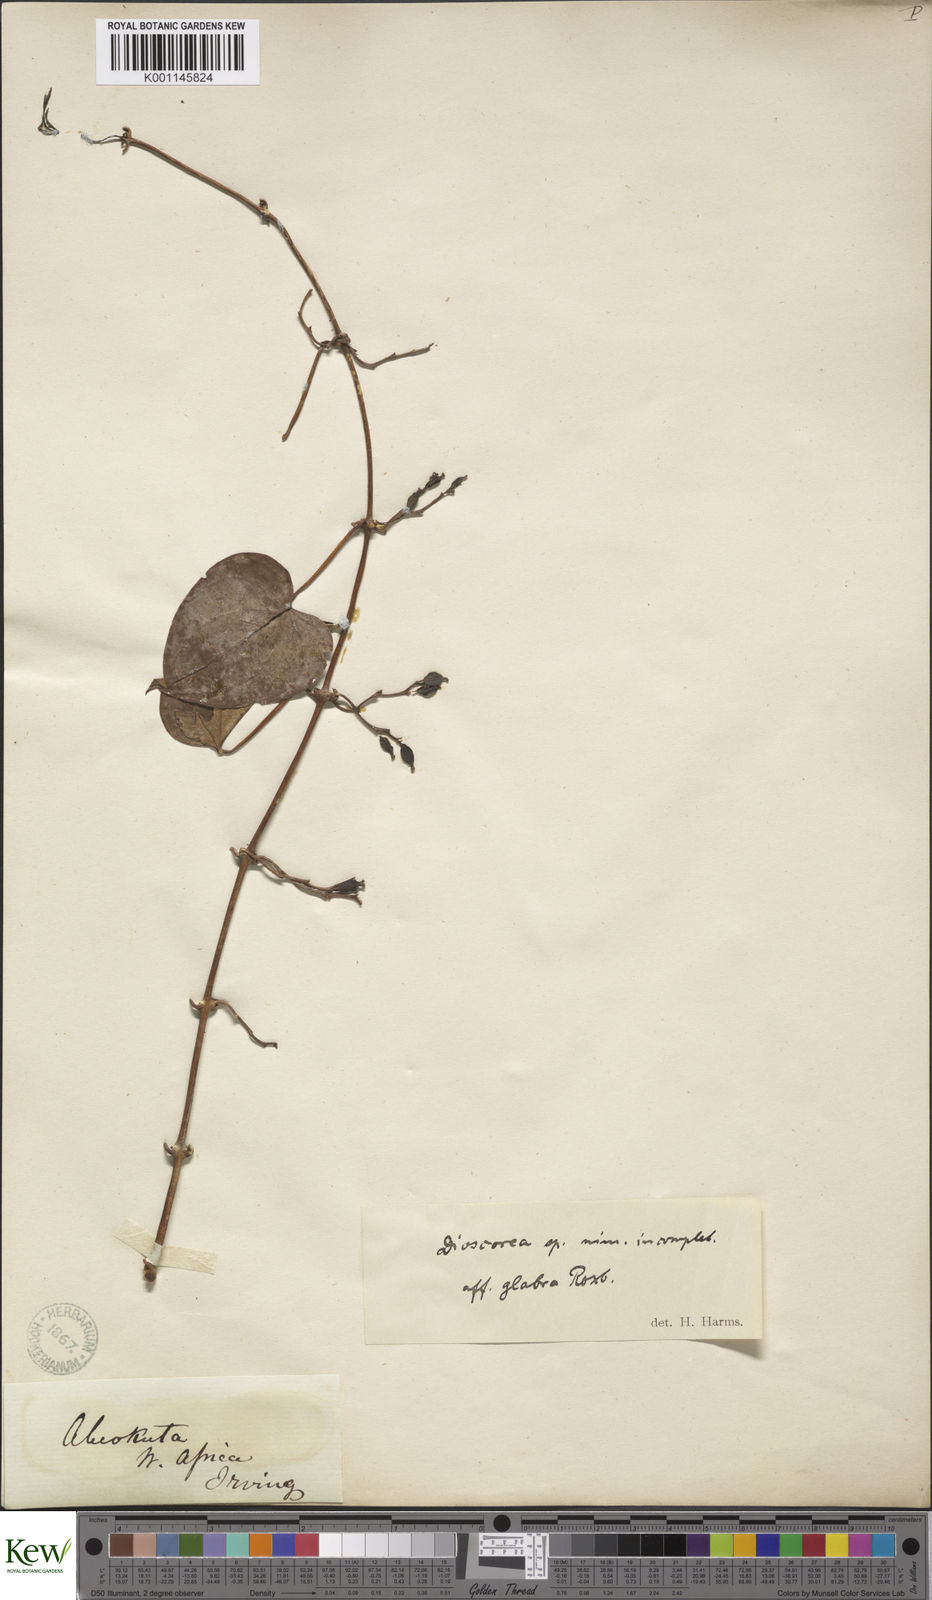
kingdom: Plantae
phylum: Tracheophyta
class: Liliopsida
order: Dioscoreales
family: Dioscoreaceae
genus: Dioscorea
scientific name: Dioscorea cayenensis
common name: Attoto yam
